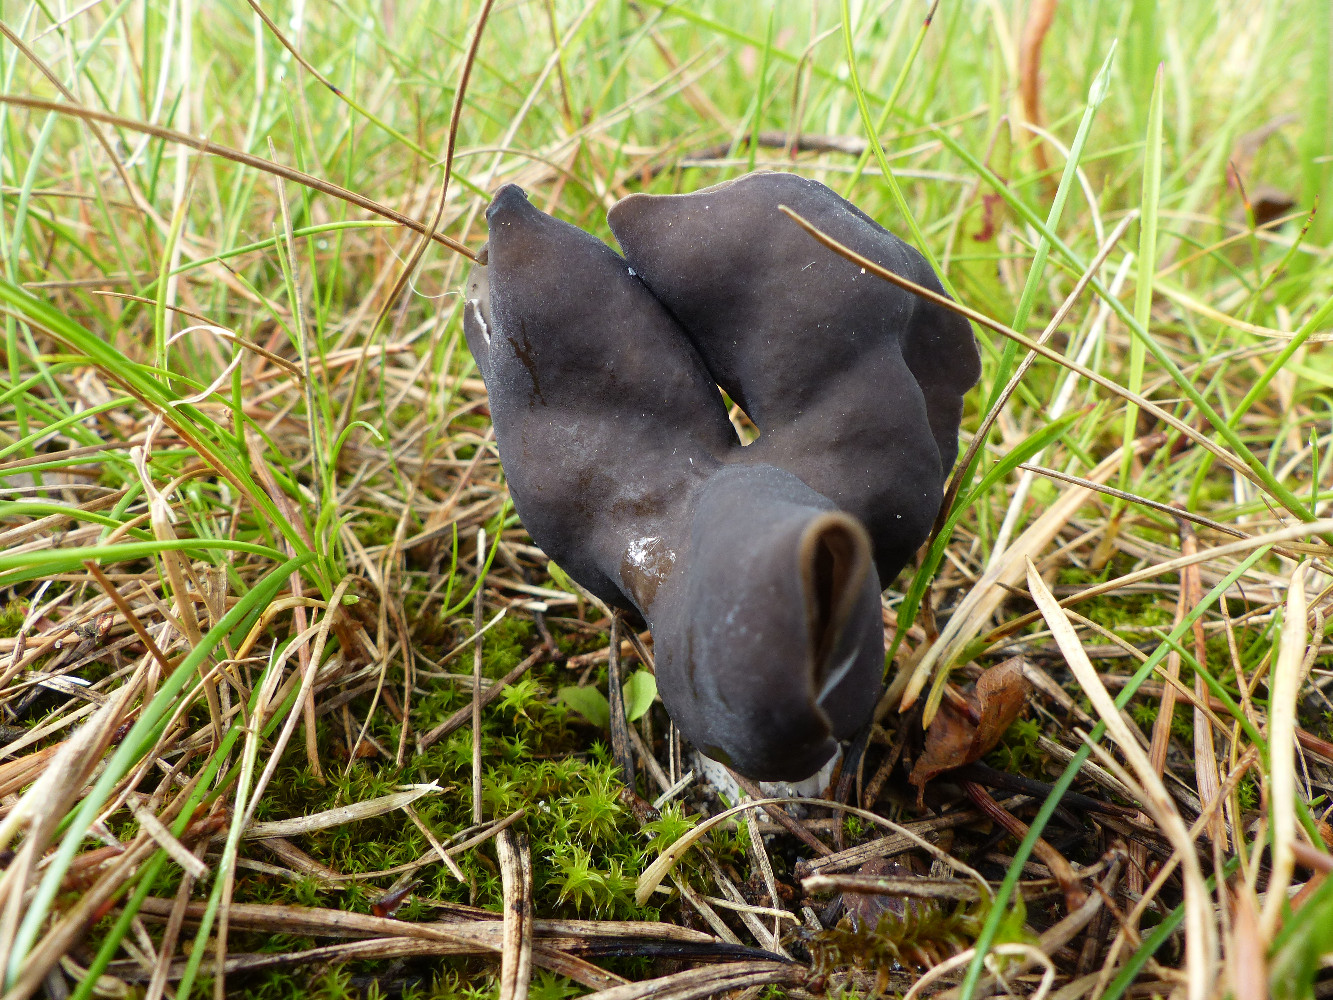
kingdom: Fungi
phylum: Ascomycota
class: Pezizomycetes
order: Pezizales
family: Helvellaceae
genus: Helvella
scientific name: Helvella lacunosa
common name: grubet foldhat
